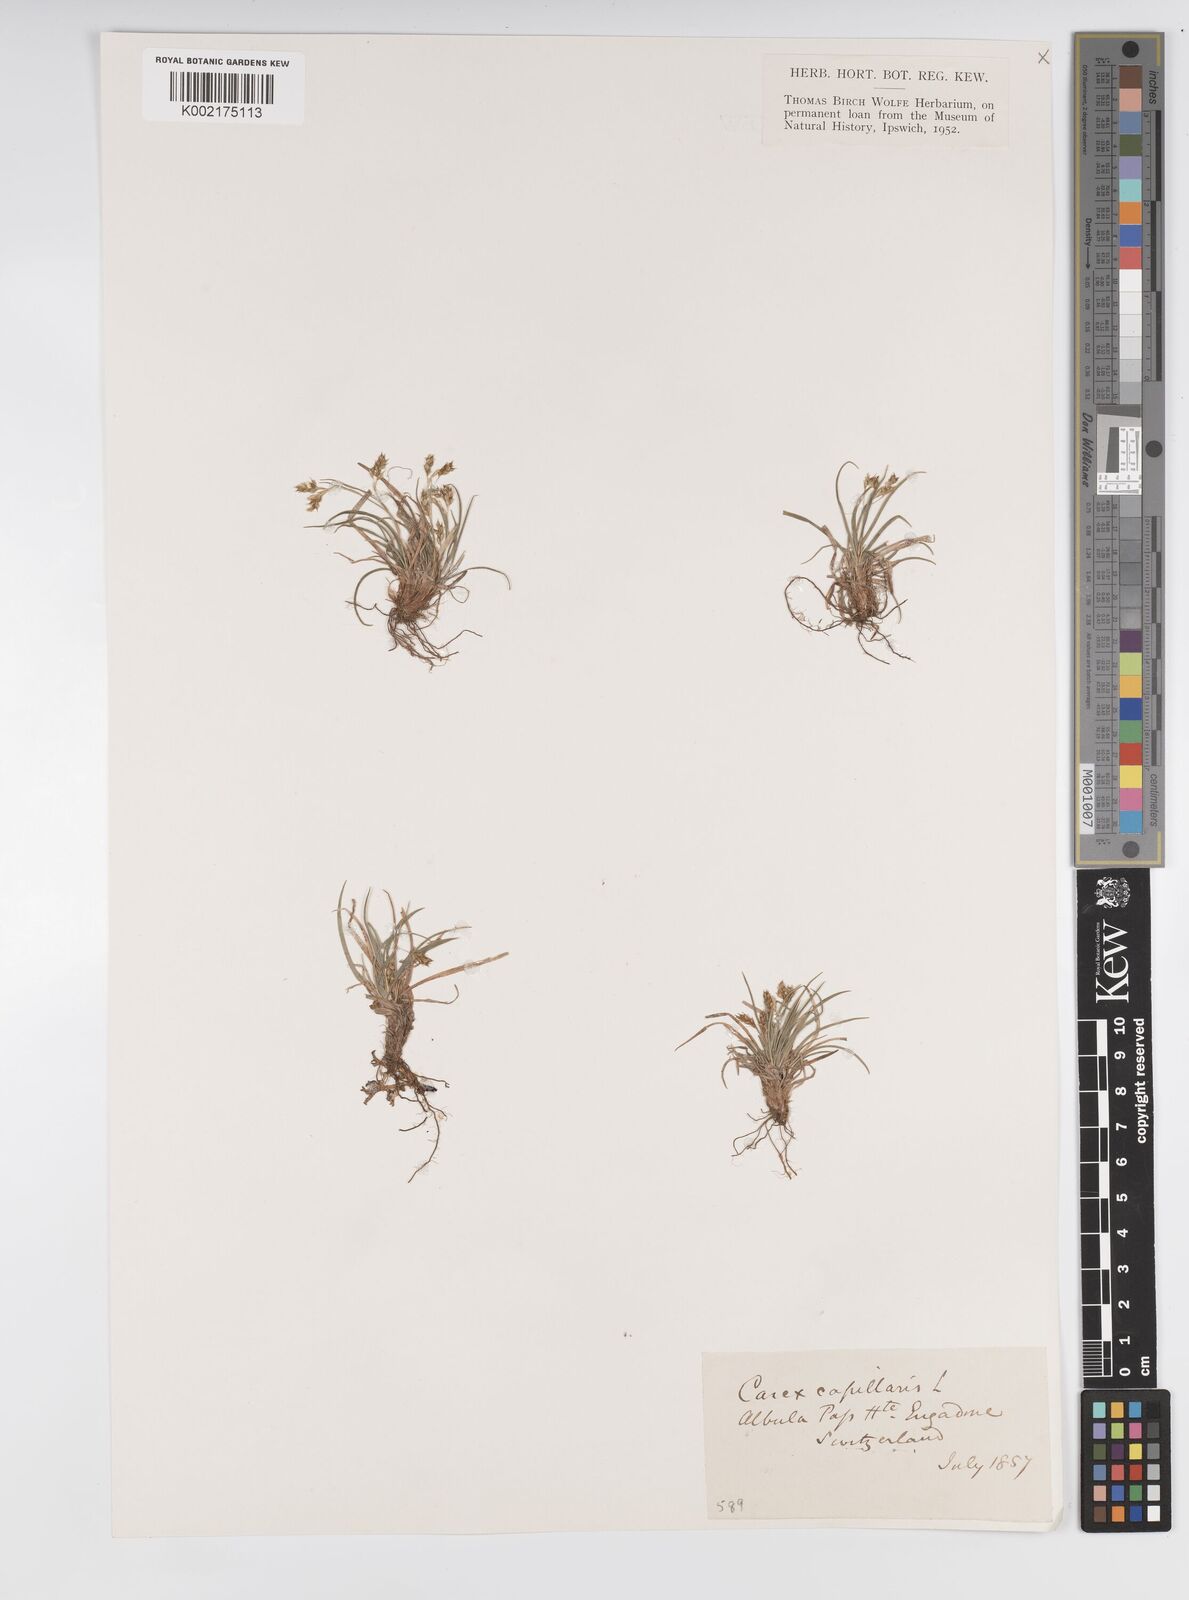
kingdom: Plantae
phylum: Tracheophyta
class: Liliopsida
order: Poales
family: Cyperaceae
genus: Carex
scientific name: Carex capillaris
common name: Hair sedge
